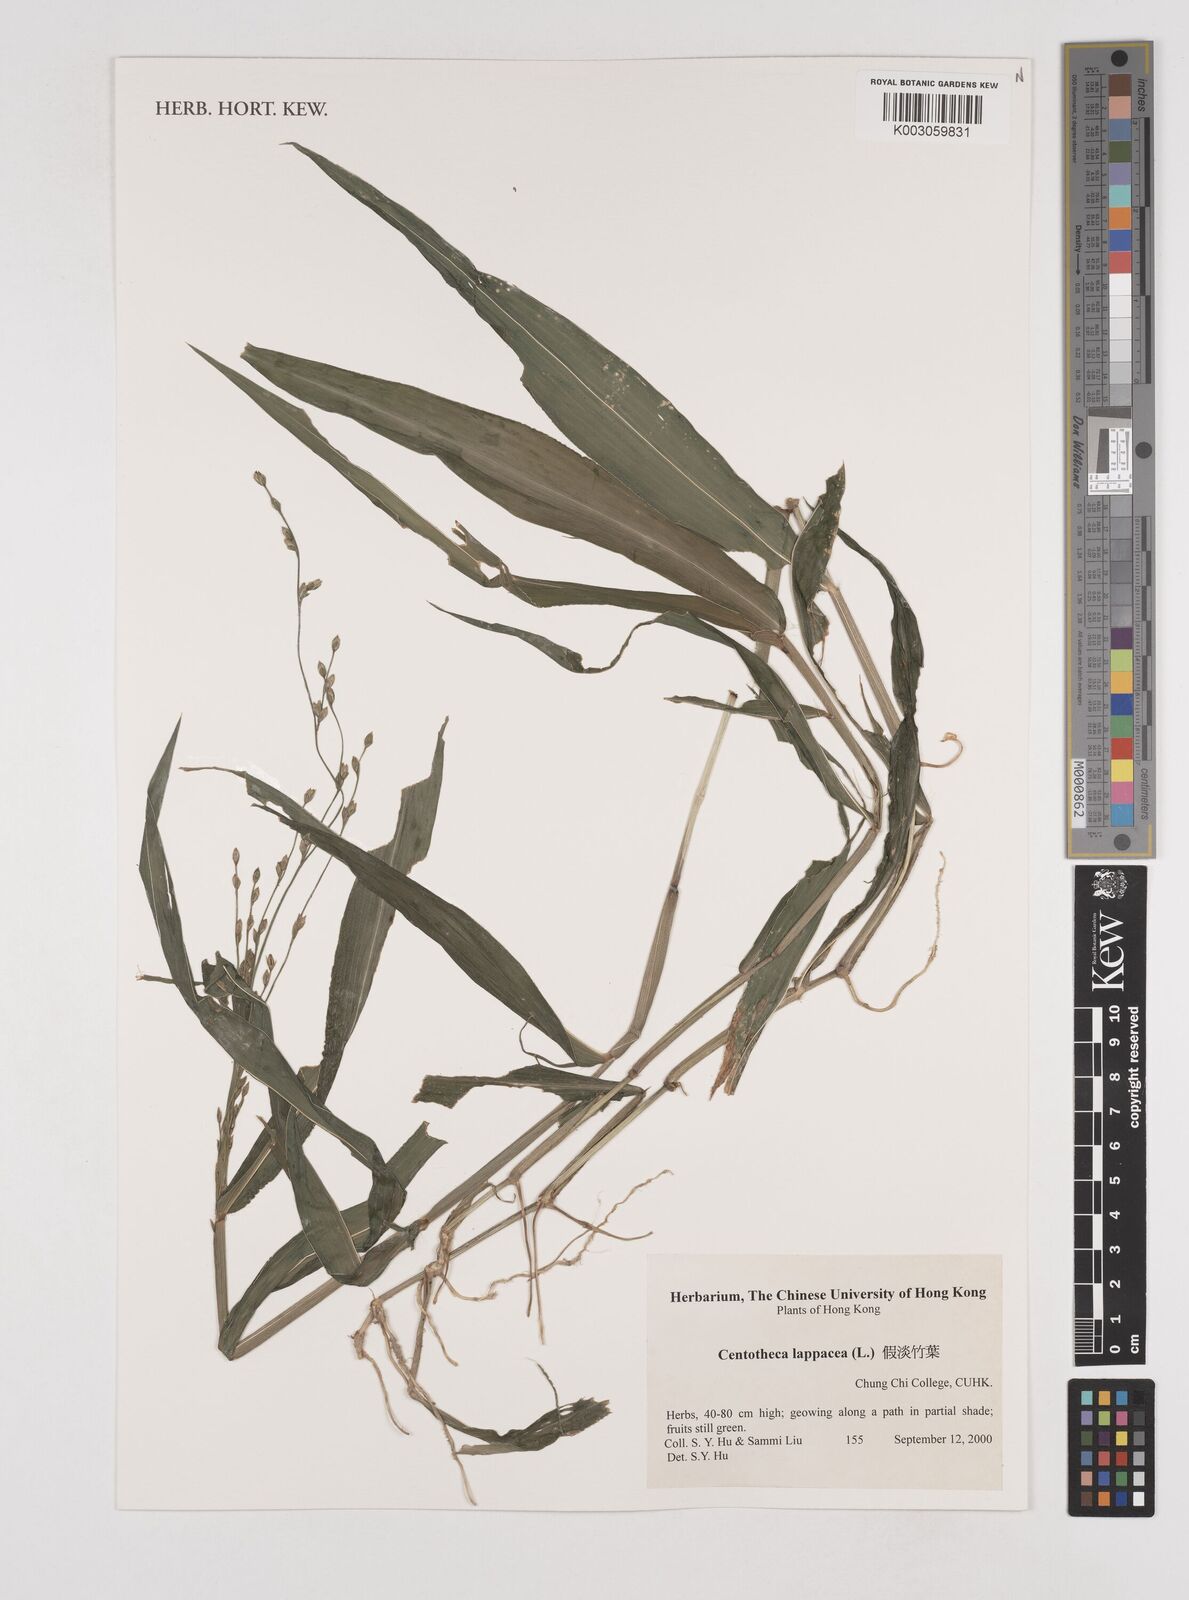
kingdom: Plantae
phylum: Tracheophyta
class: Liliopsida
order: Poales
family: Poaceae
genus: Centotheca
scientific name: Centotheca lappacea
